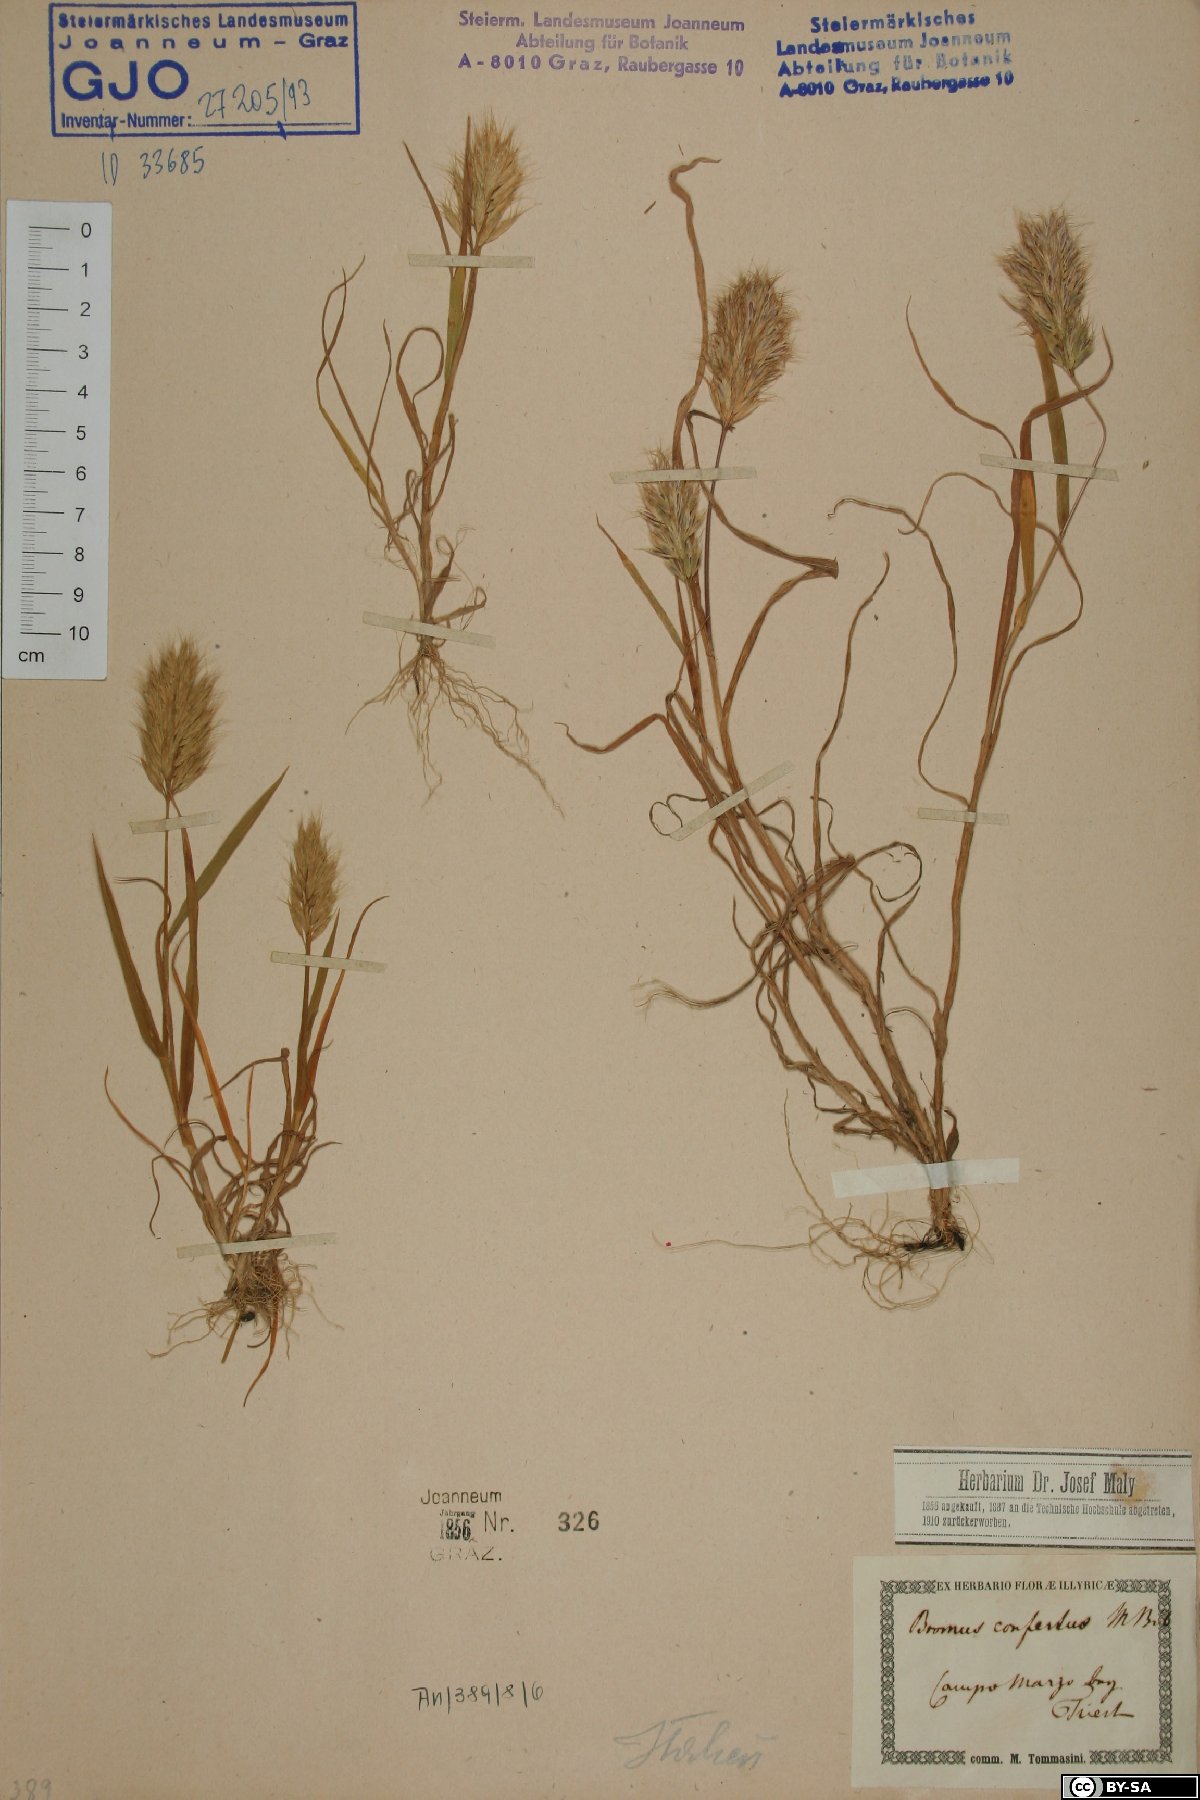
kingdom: Plantae
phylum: Tracheophyta
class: Liliopsida
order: Poales
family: Poaceae
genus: Bromus
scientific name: Bromus scoparius
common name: Broom brome
